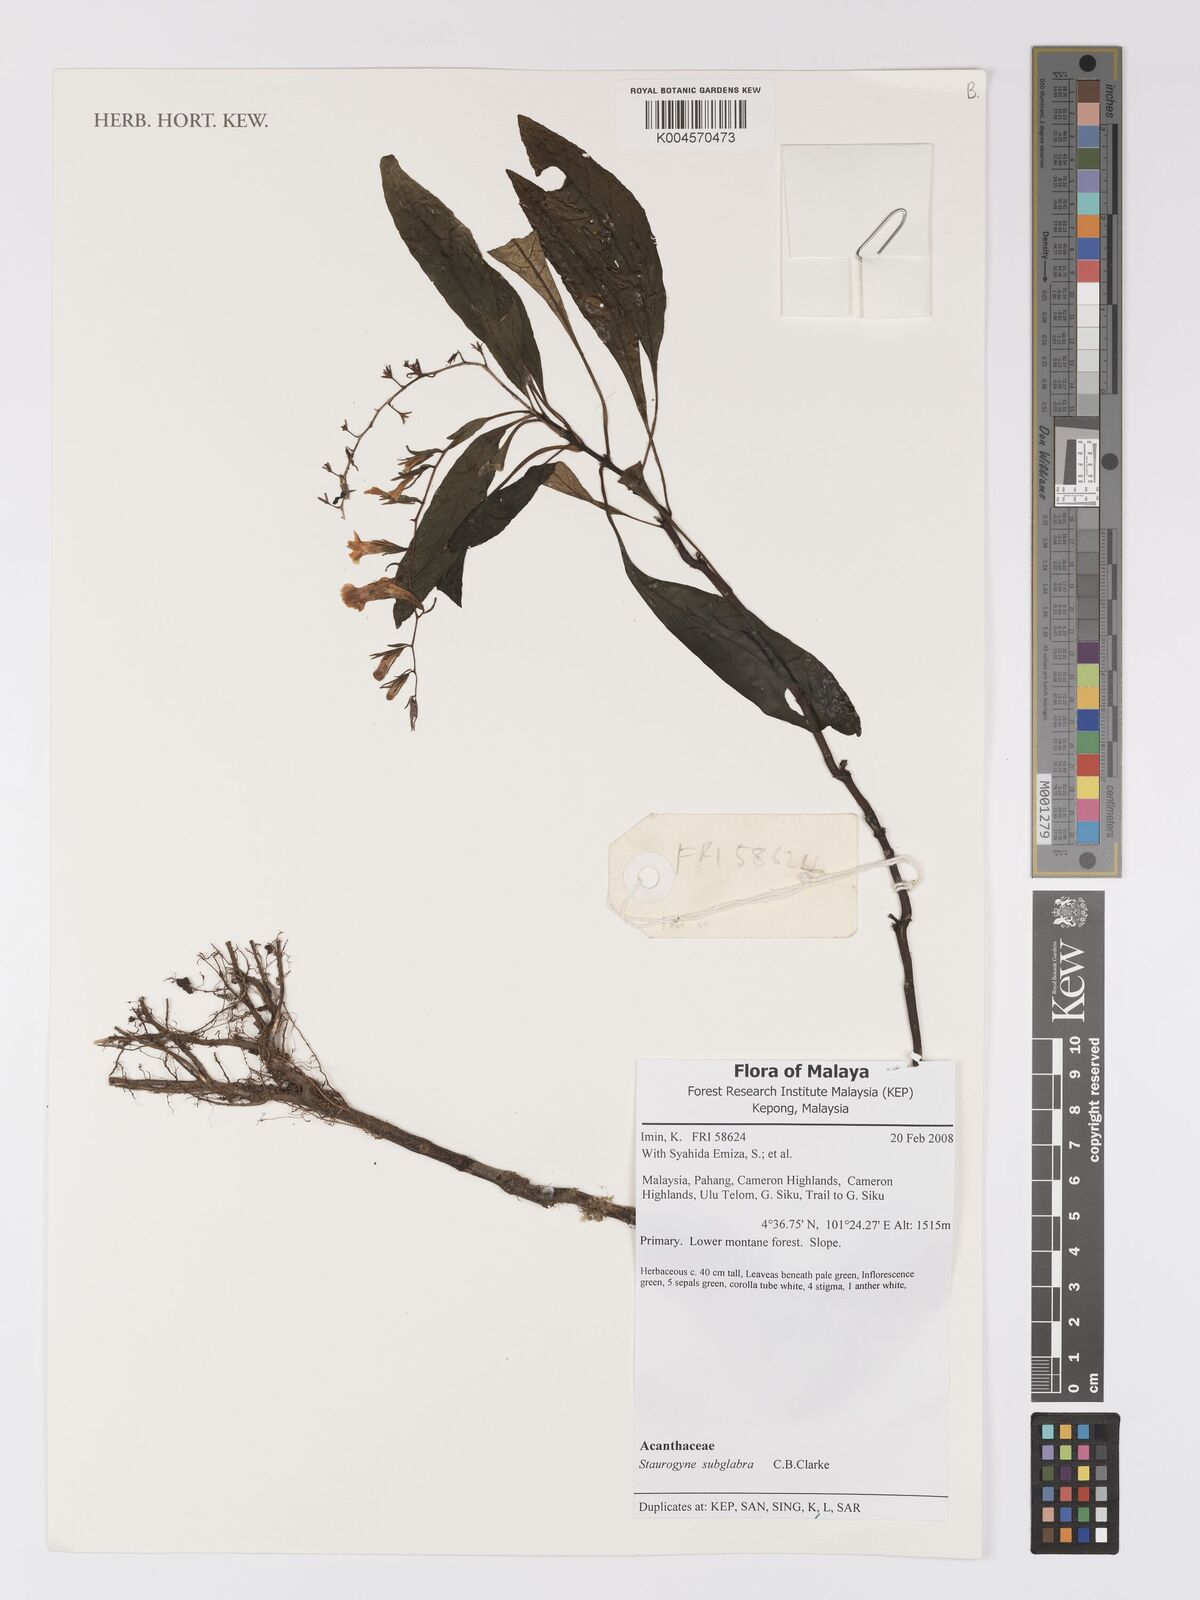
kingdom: Plantae
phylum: Tracheophyta
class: Magnoliopsida
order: Lamiales
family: Acanthaceae
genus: Staurogyne
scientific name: Staurogyne subglabra
